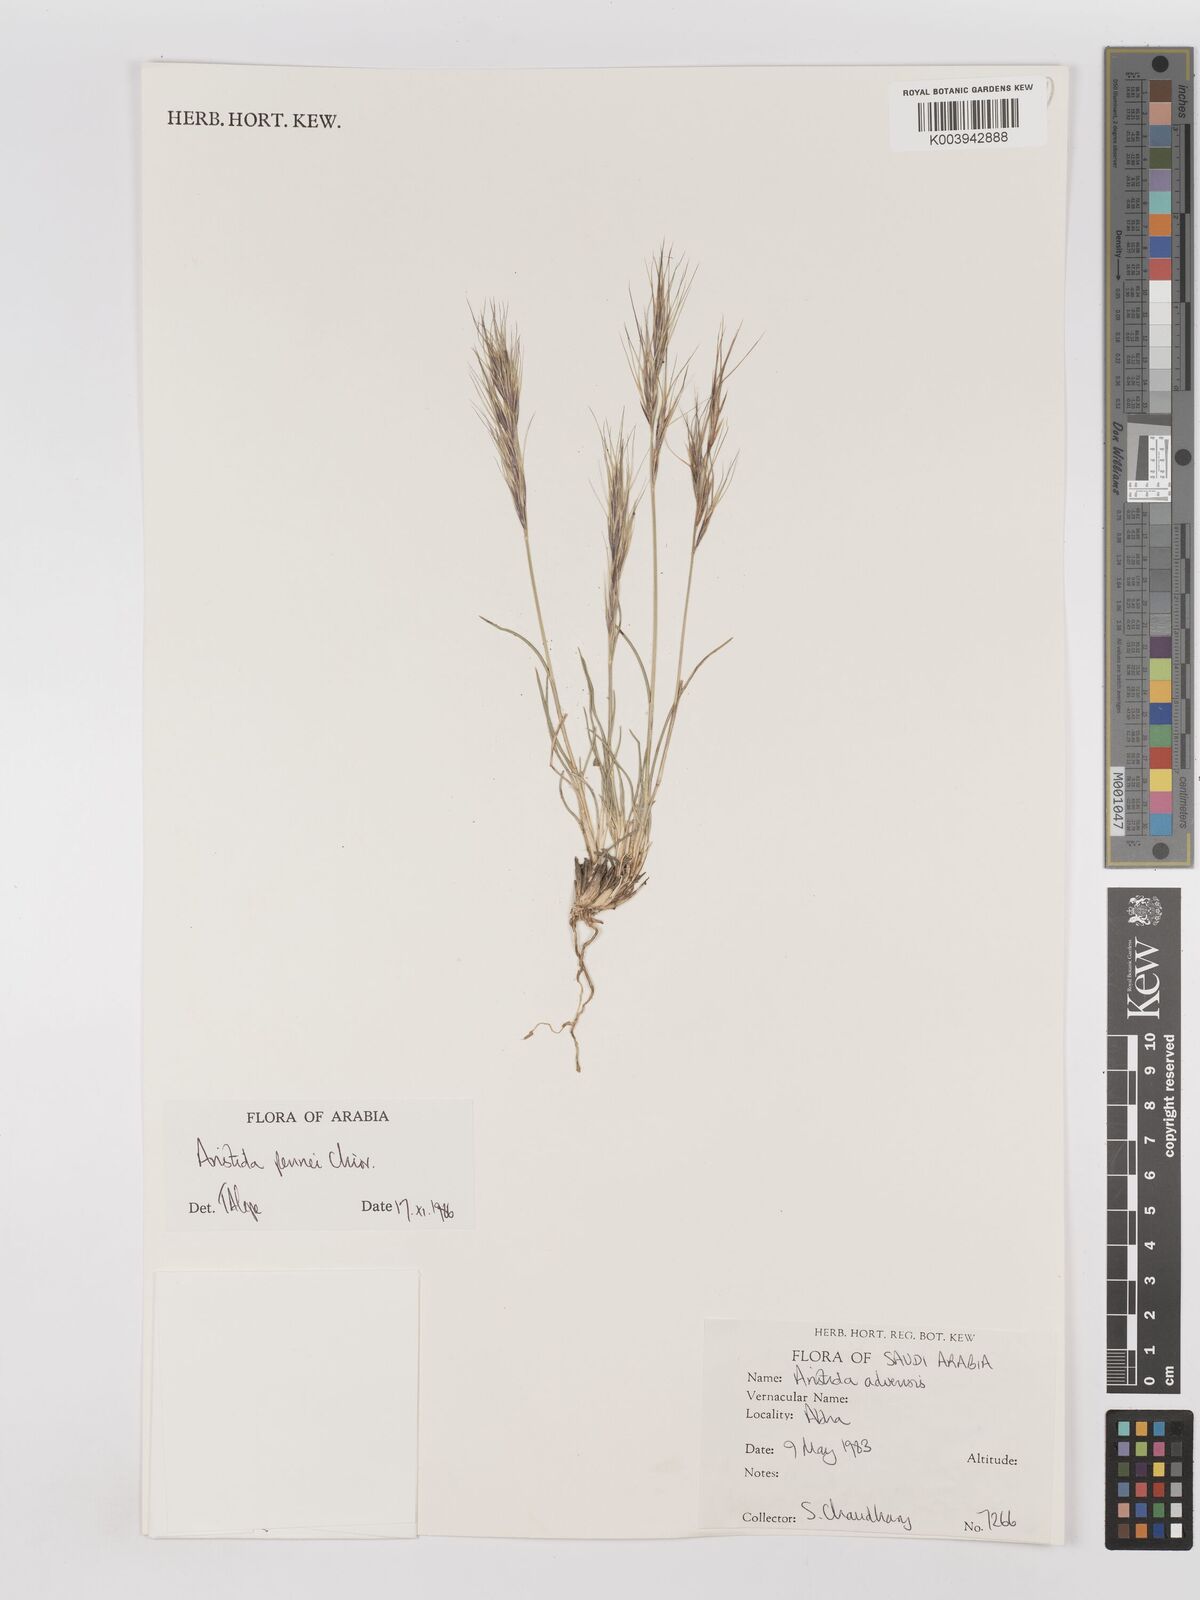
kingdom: Plantae
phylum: Tracheophyta
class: Liliopsida
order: Poales
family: Poaceae
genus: Aristida
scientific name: Aristida pennei
